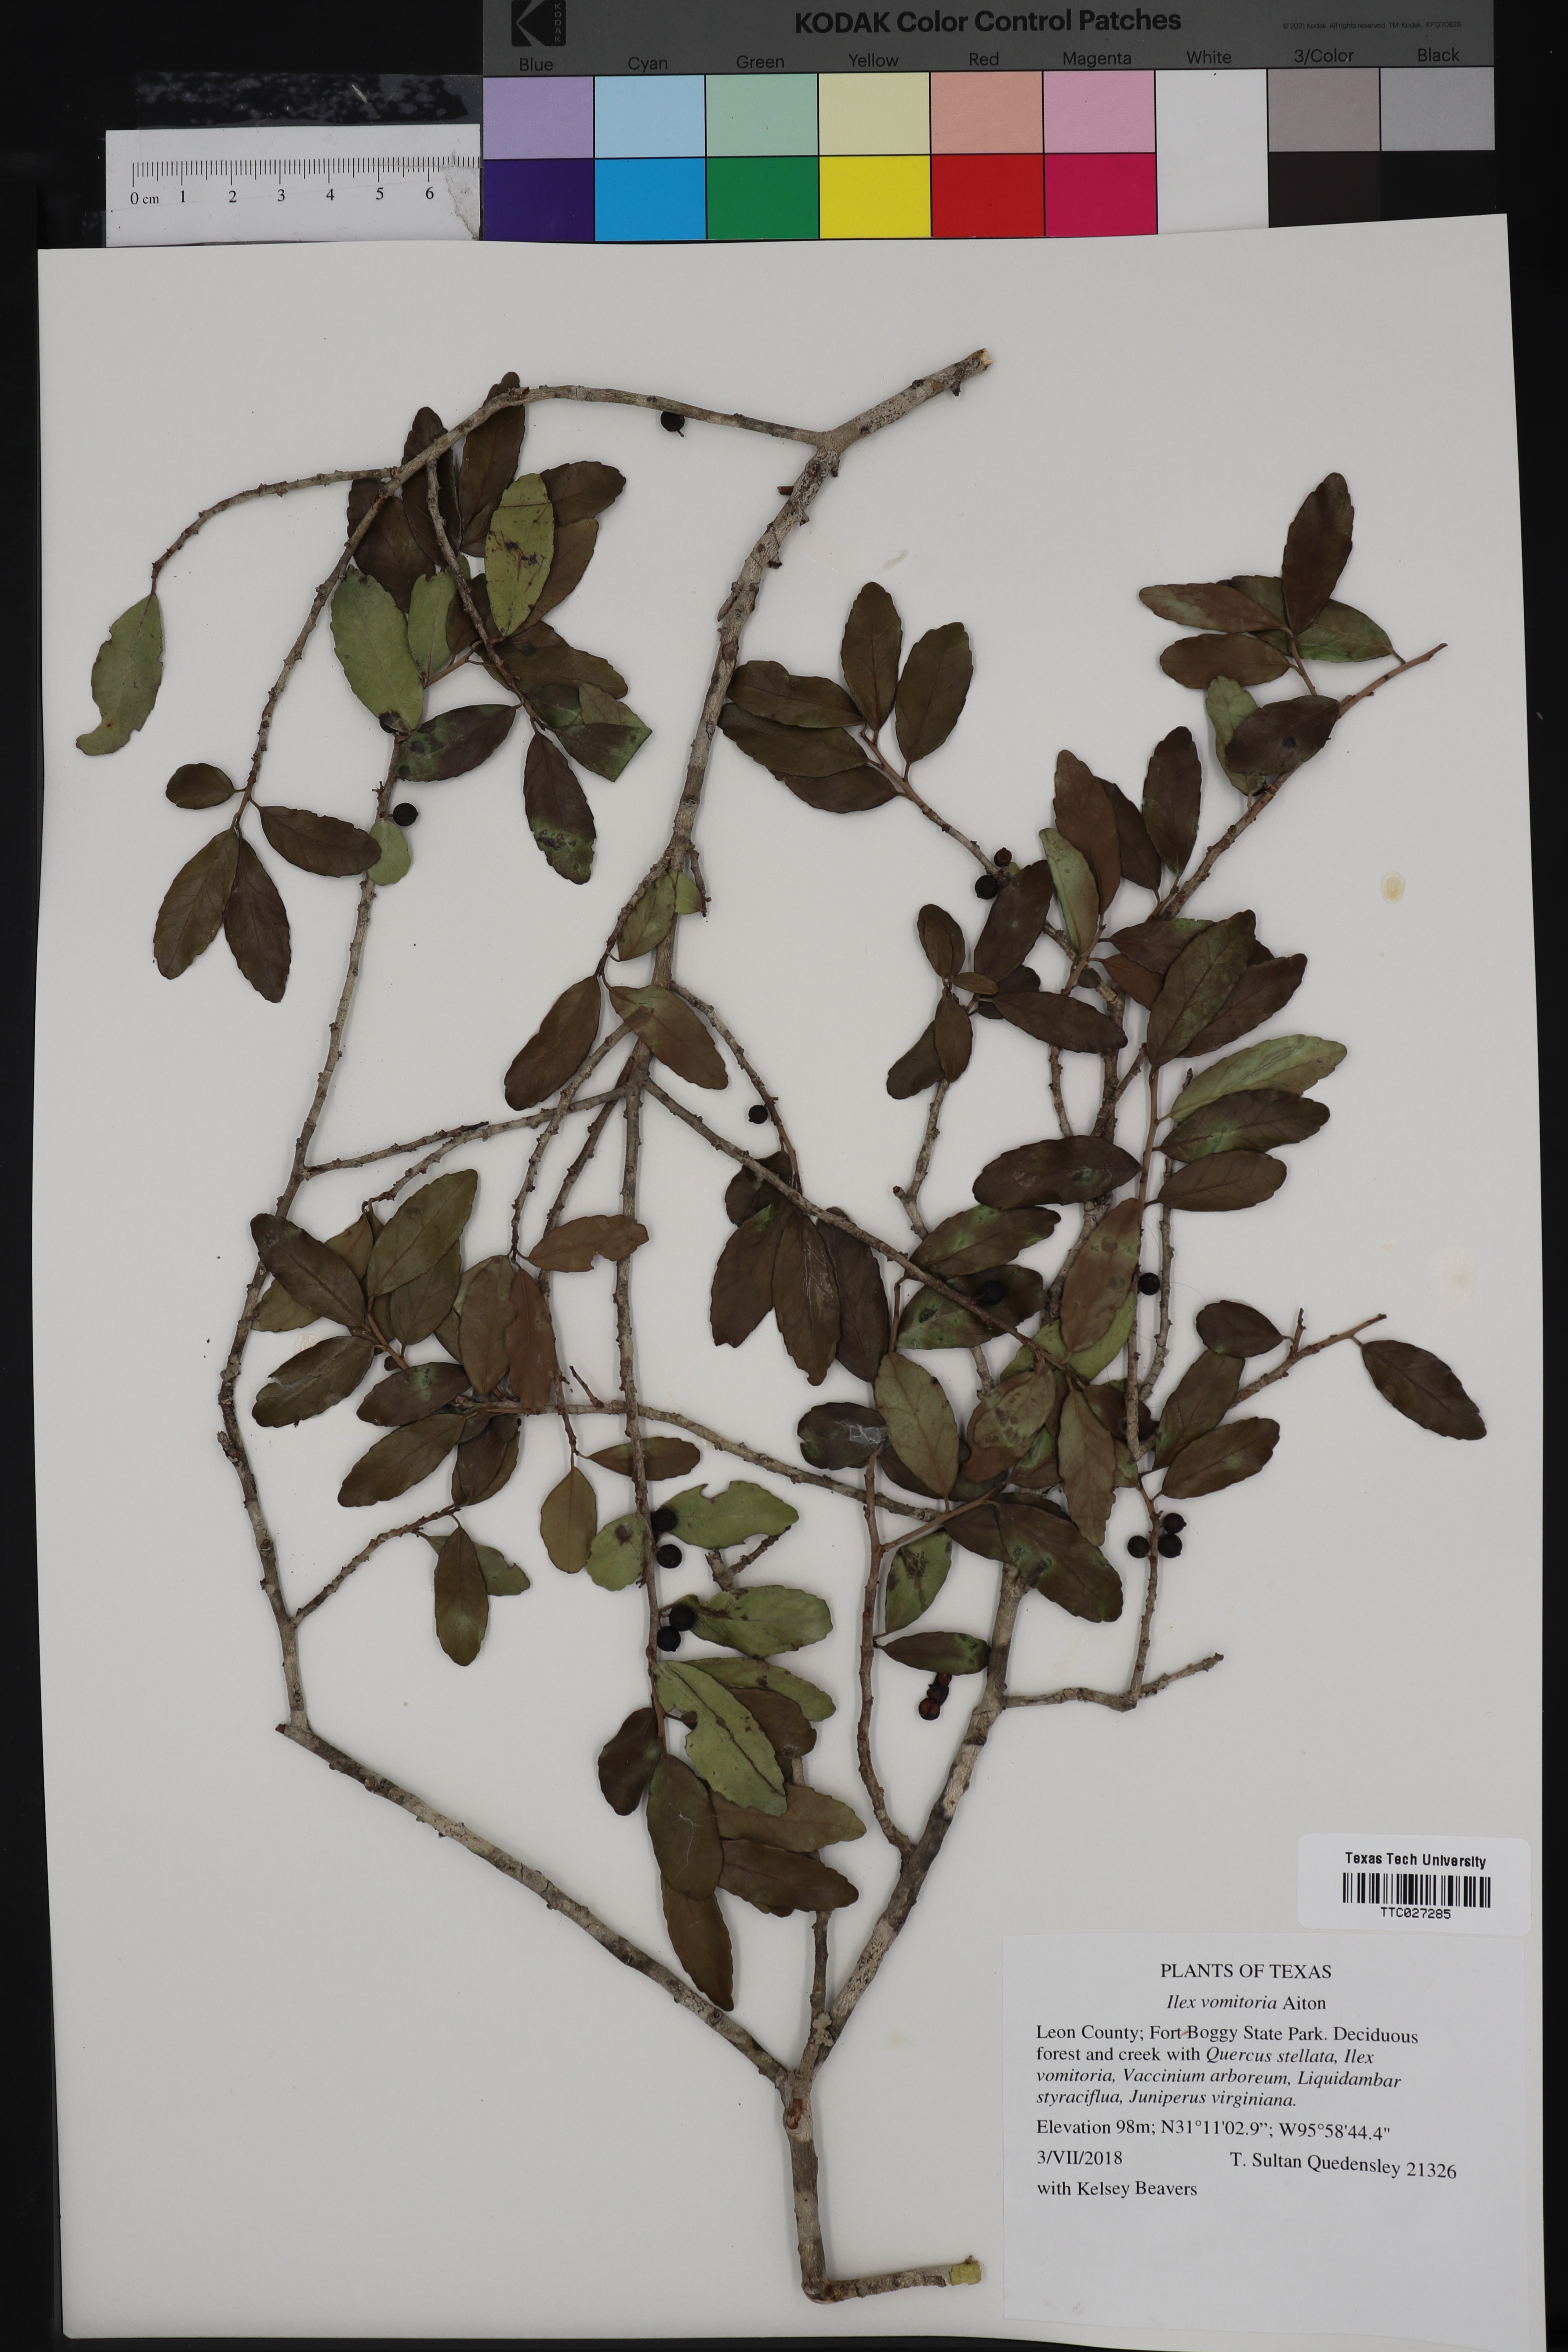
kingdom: Plantae
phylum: Tracheophyta
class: Magnoliopsida
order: Aquifoliales
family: Aquifoliaceae
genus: Ilex
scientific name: Ilex vomitoria
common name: Yaupon holly
